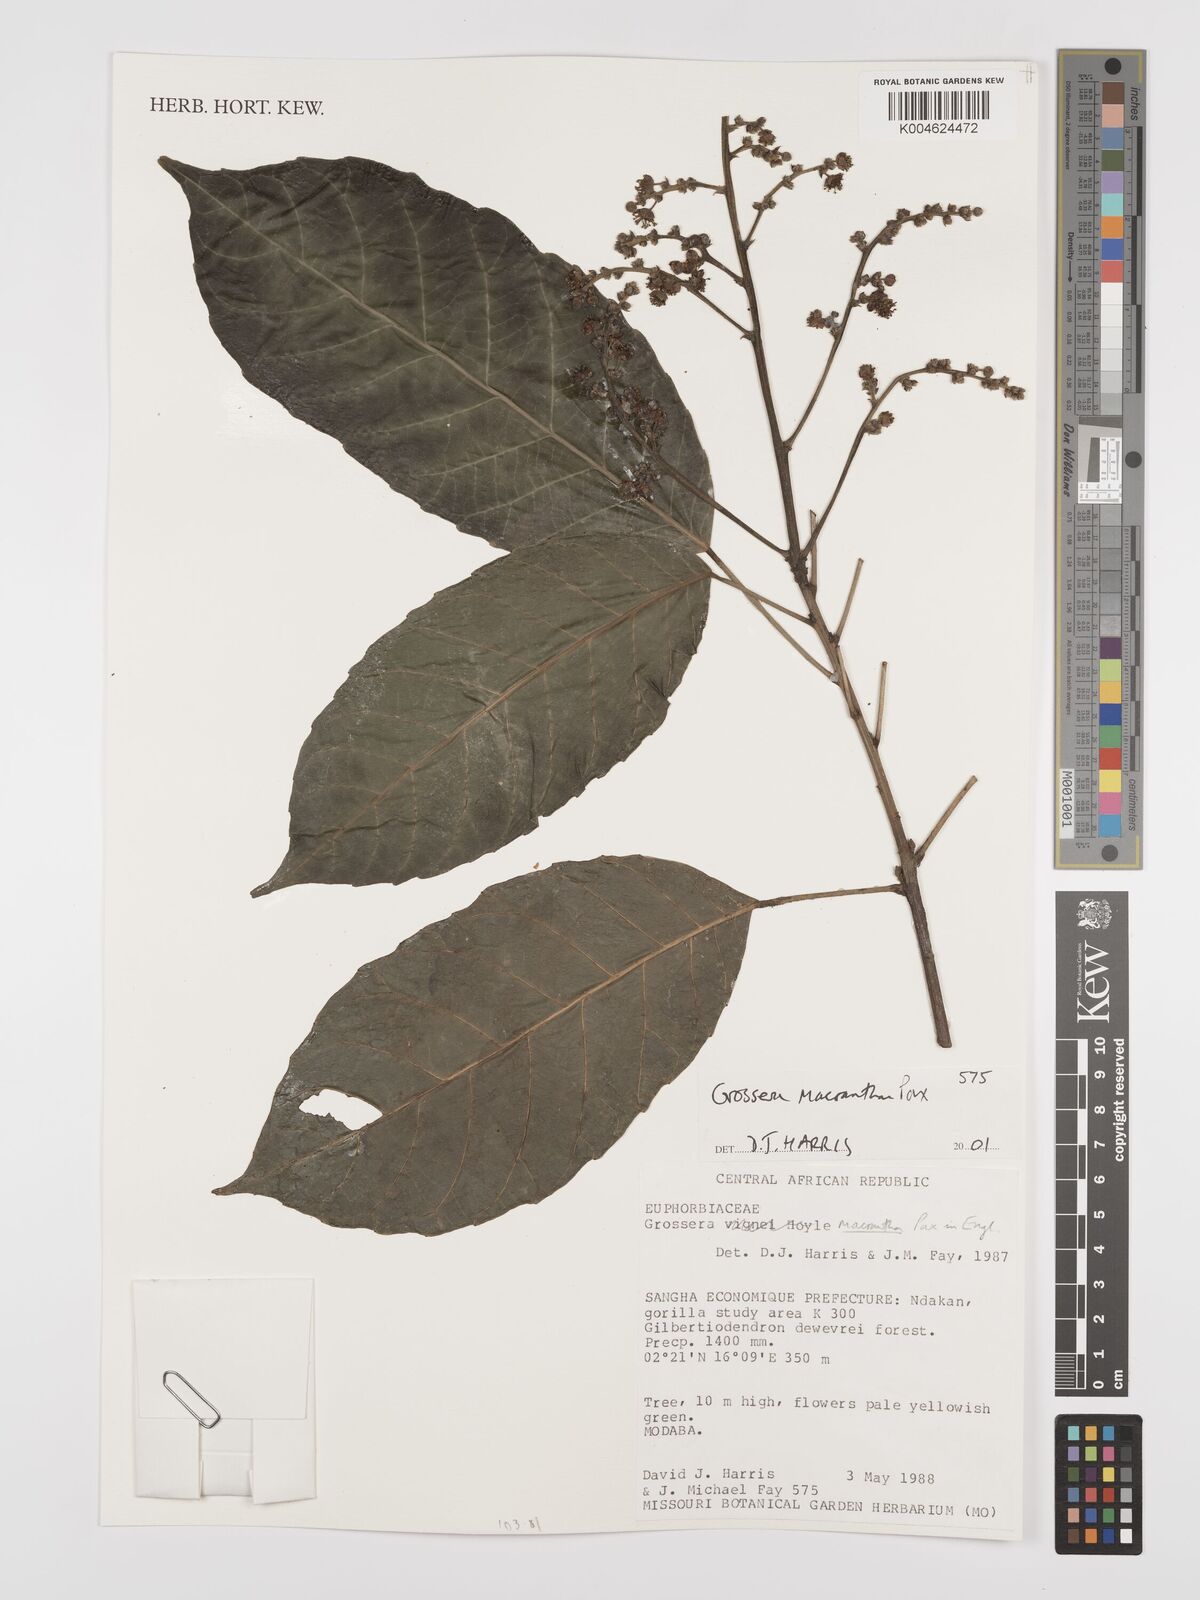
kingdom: Plantae
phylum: Tracheophyta
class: Magnoliopsida
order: Malpighiales
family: Euphorbiaceae
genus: Grossera
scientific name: Grossera macrantha
